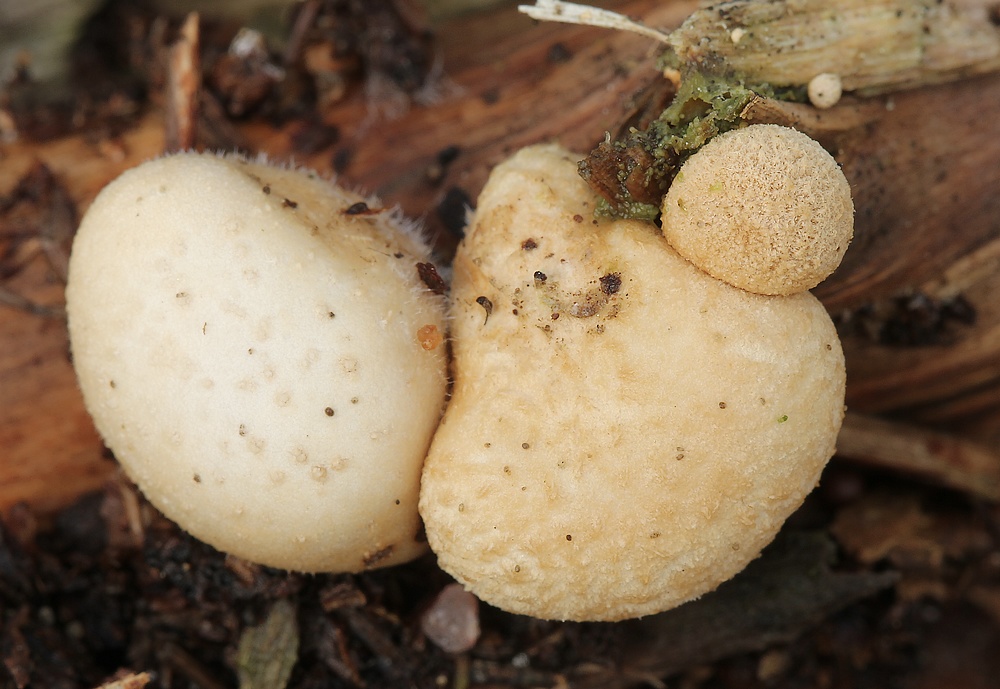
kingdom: Fungi
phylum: Basidiomycota
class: Agaricomycetes
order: Agaricales
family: Agaricaceae
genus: Nidularia
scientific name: Nidularia deformis
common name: pudesvamp
